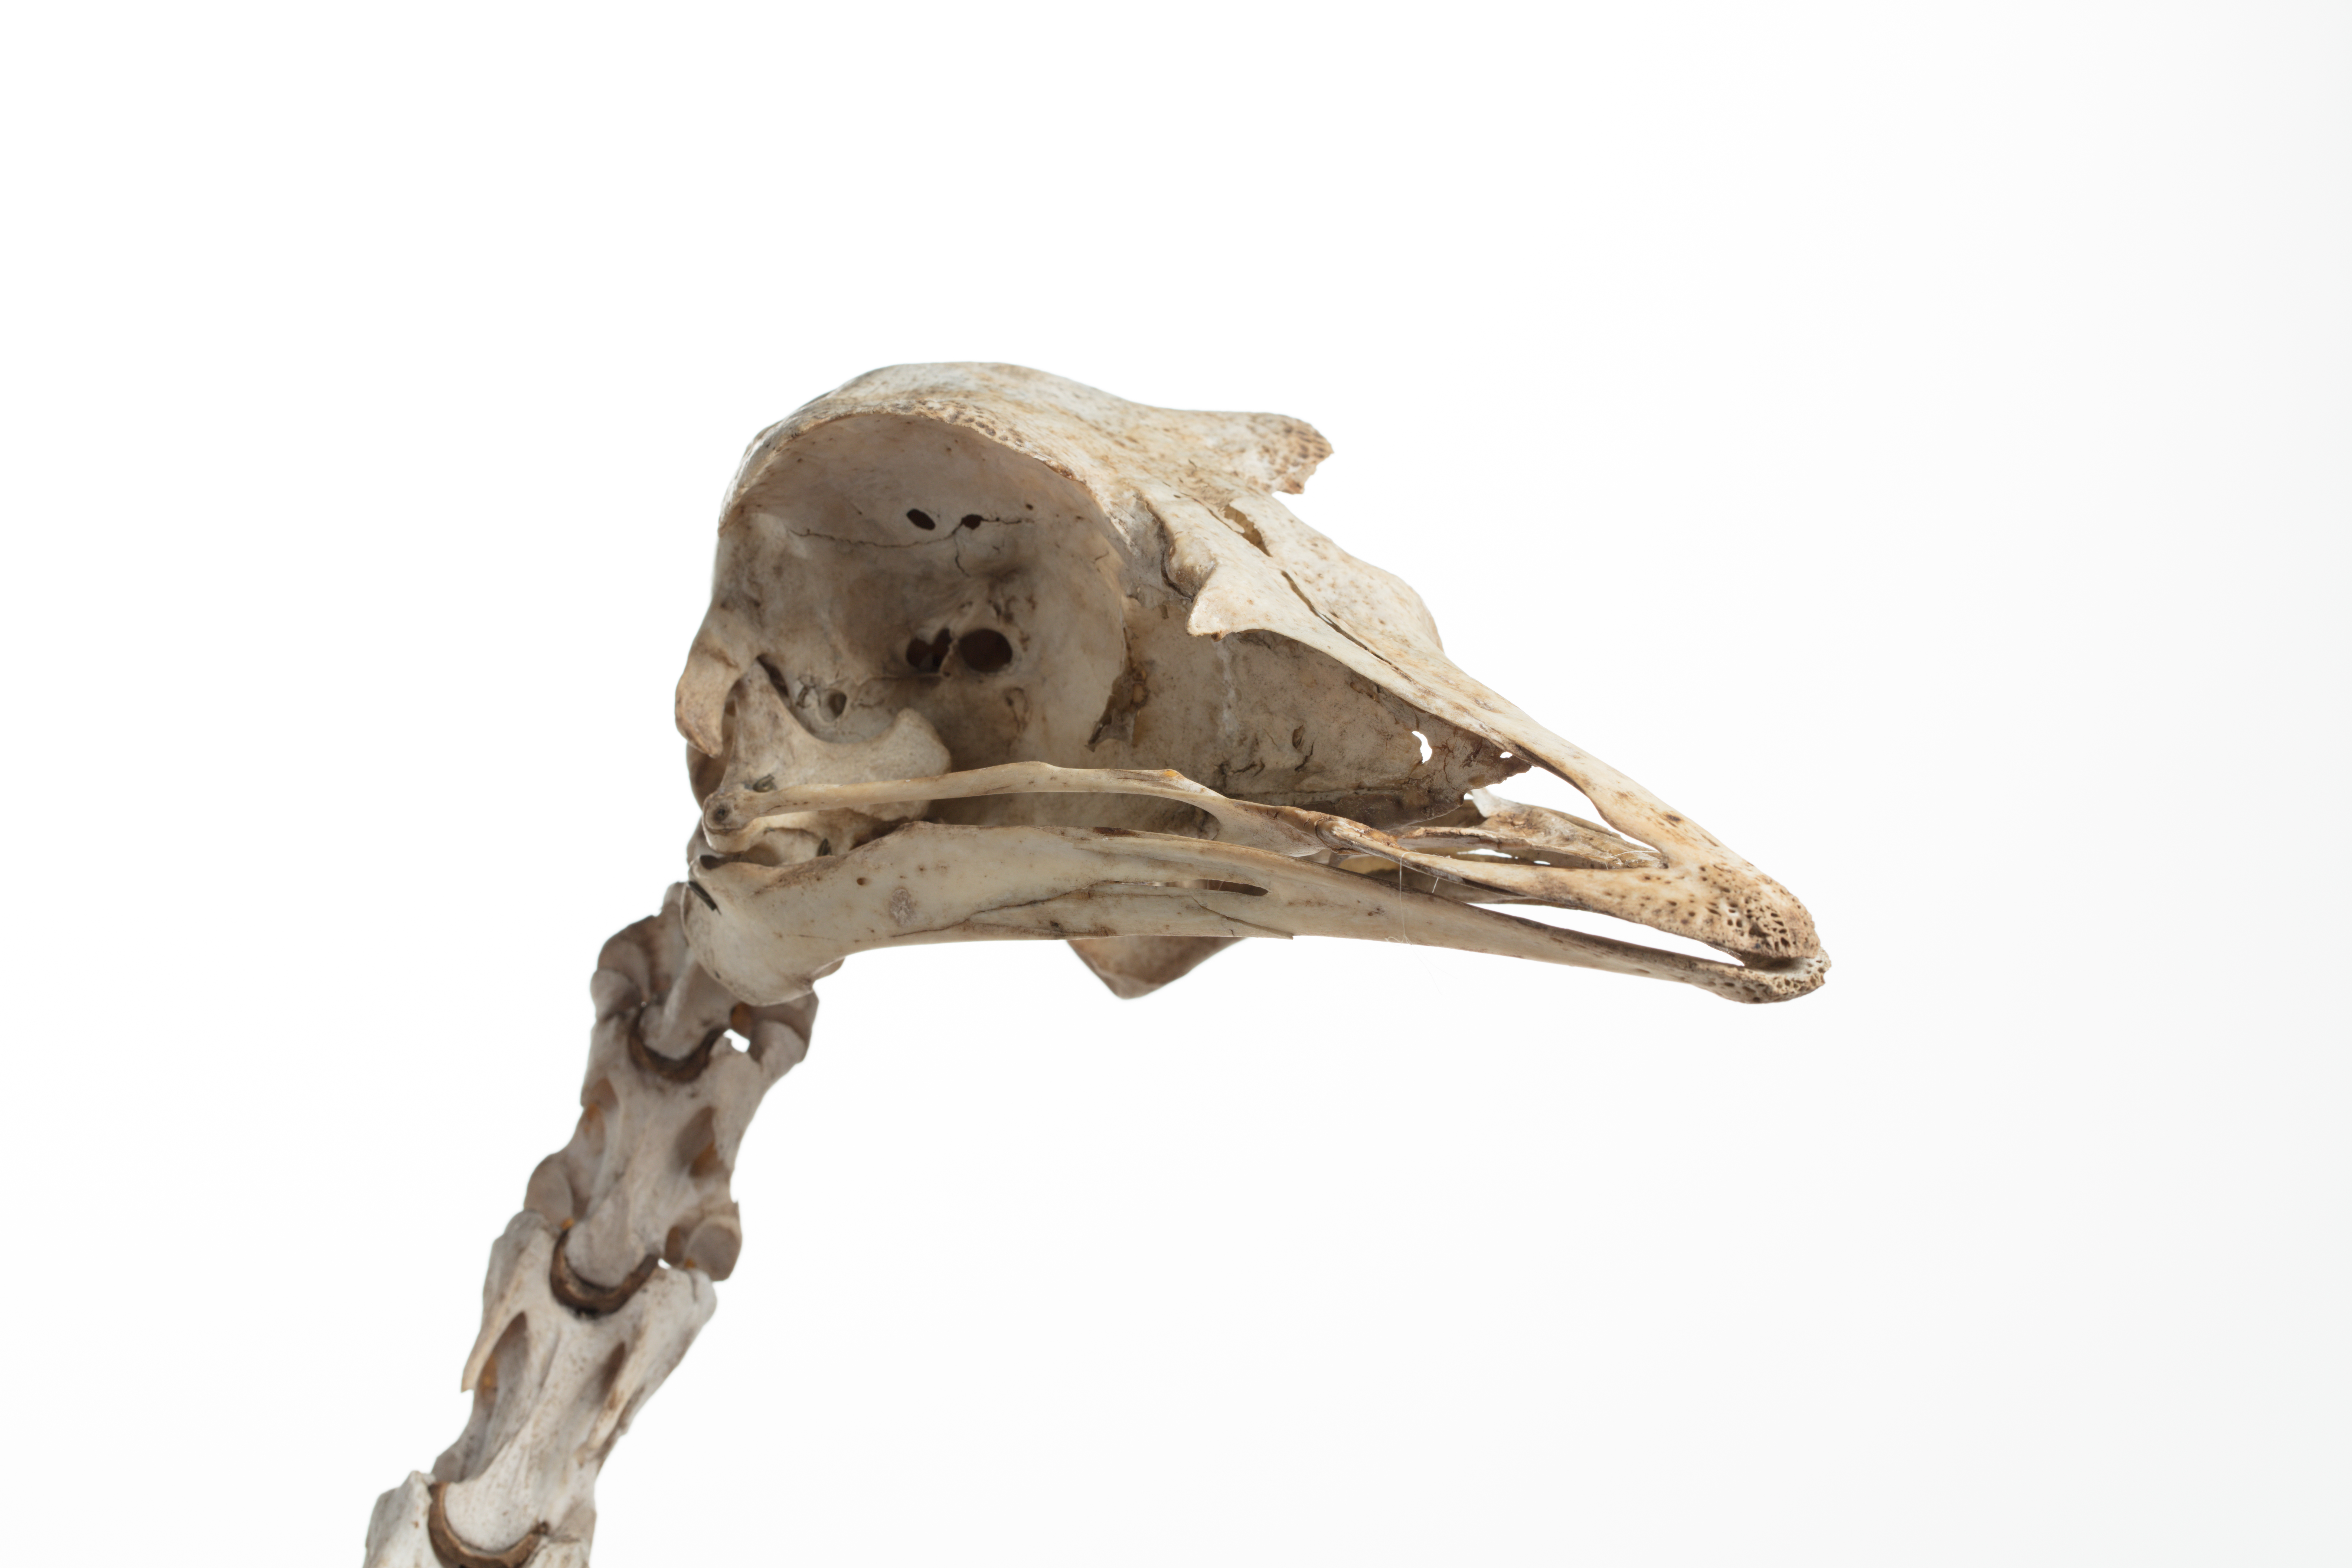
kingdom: Animalia
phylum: Chordata
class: Aves
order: Struthioniformes
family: Struthionidae
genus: Struthio
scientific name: Struthio camelus
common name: Common ostrich
